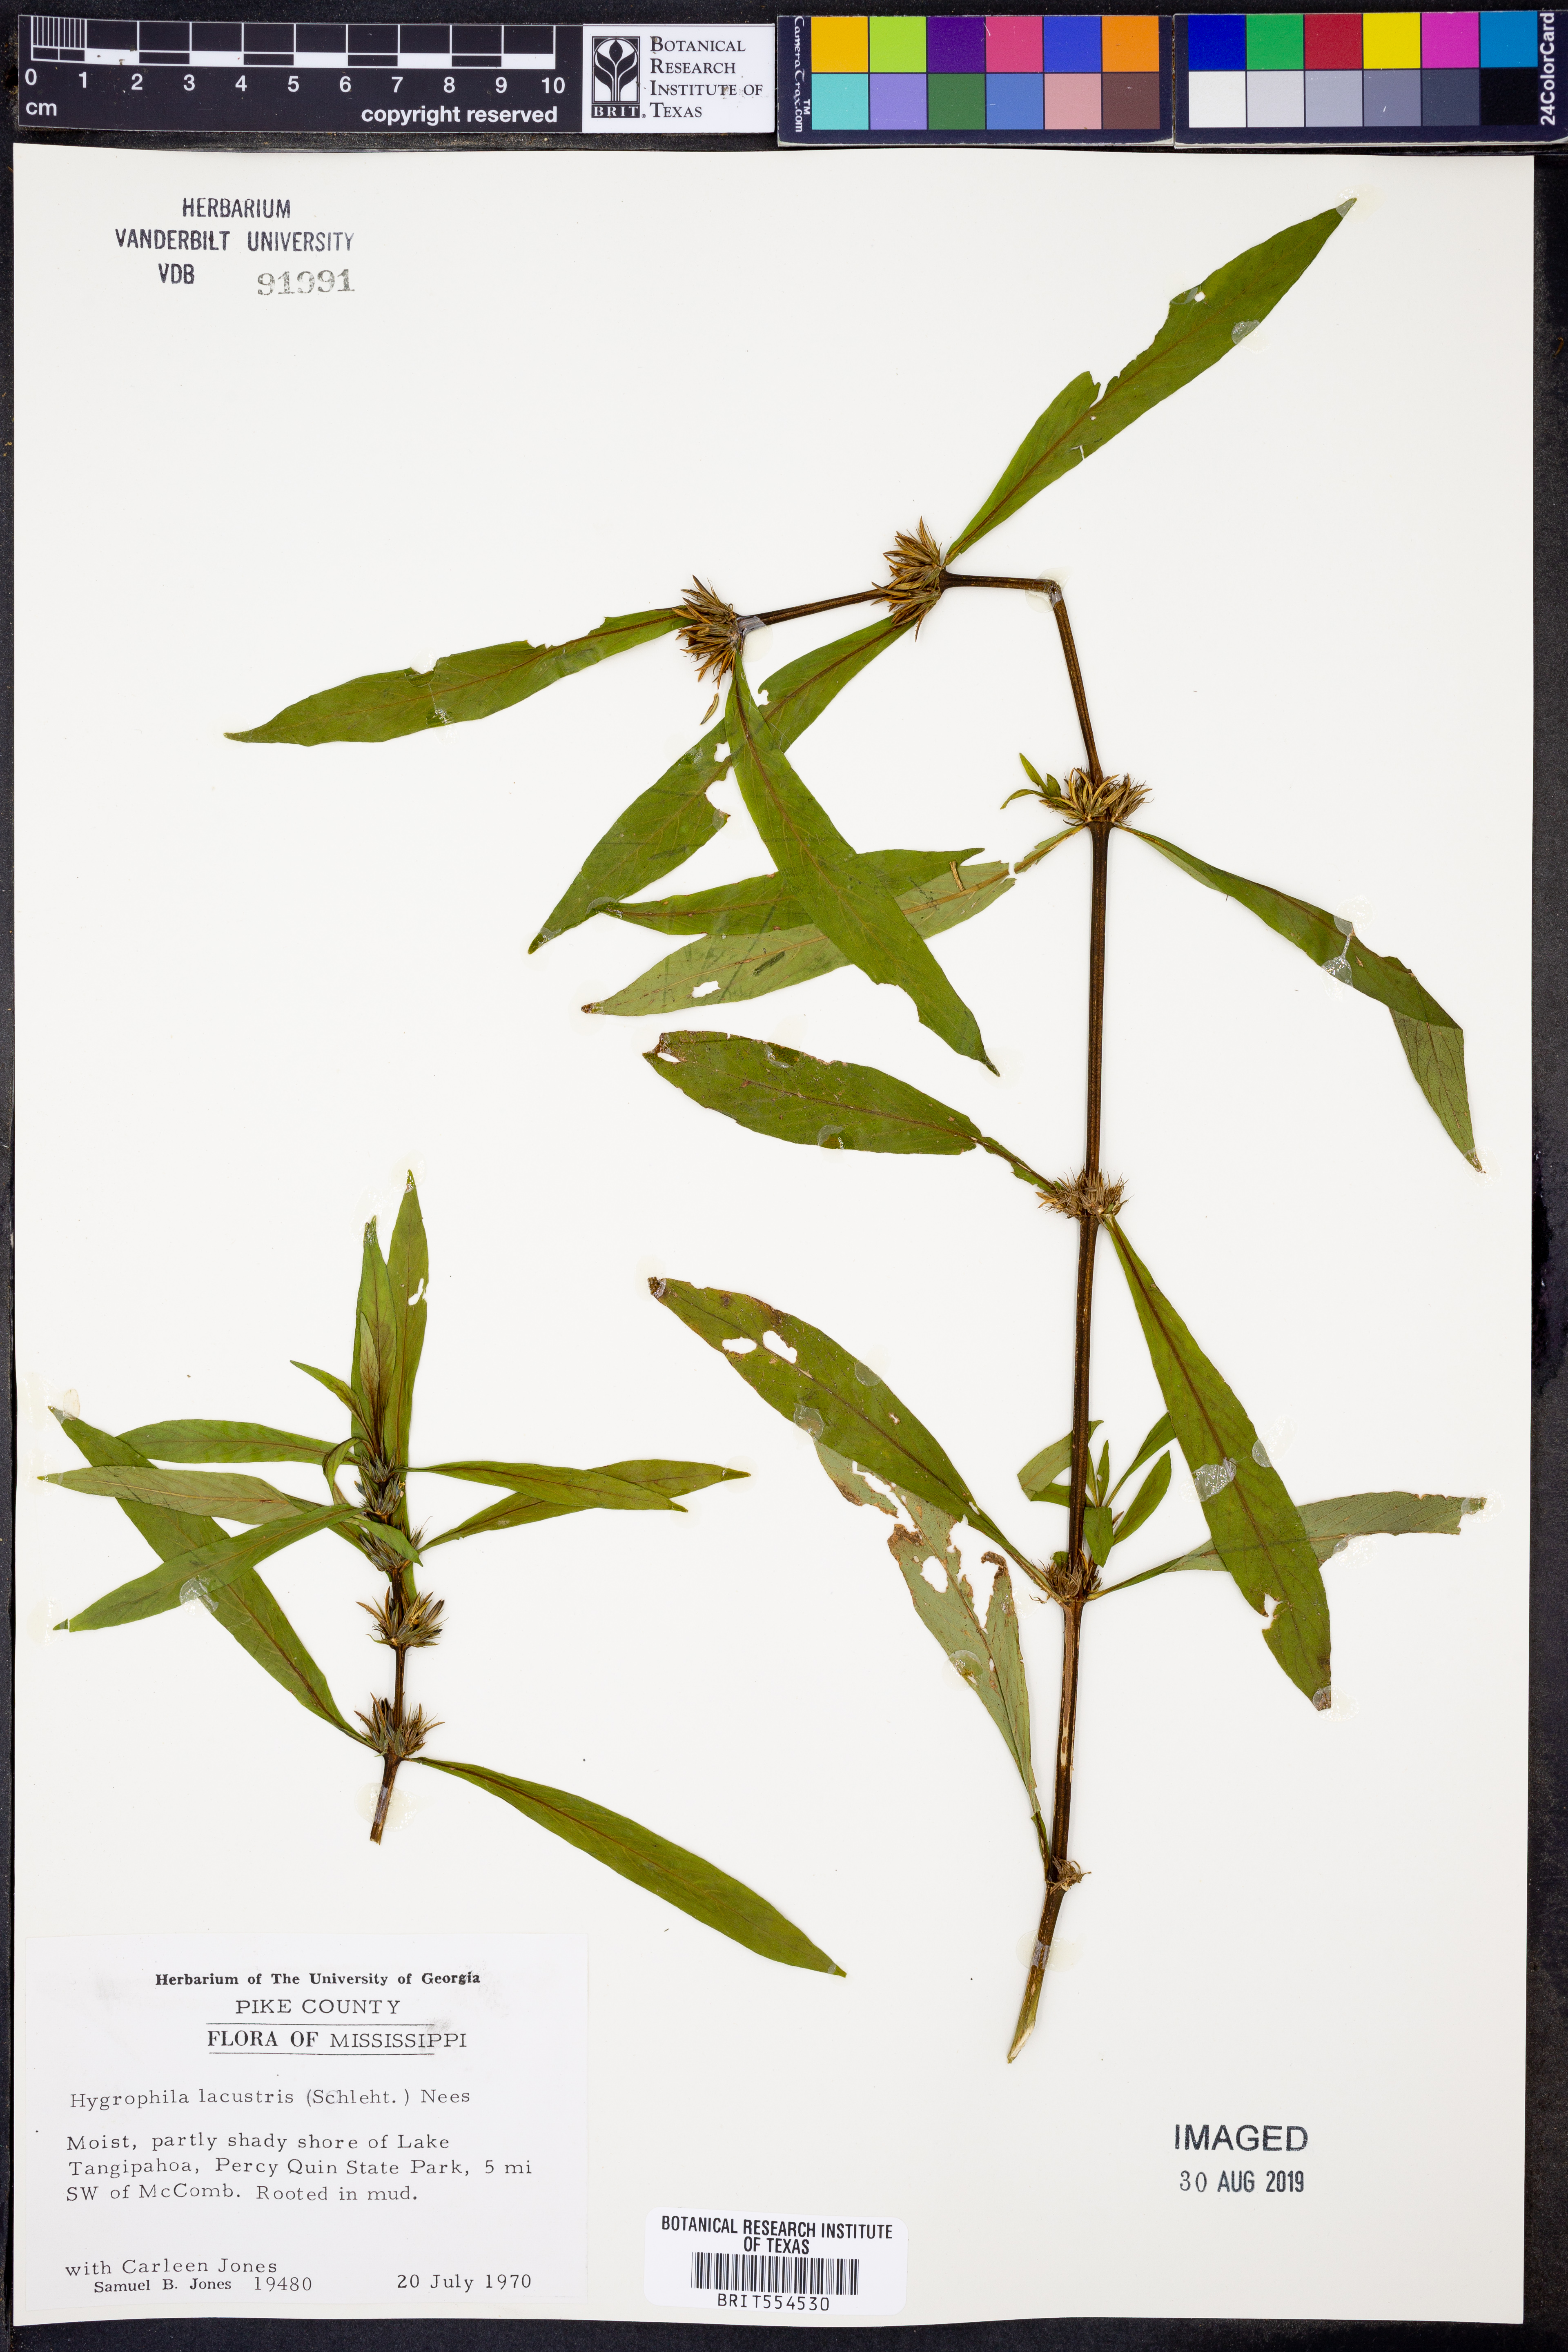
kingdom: Plantae
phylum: Tracheophyta
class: Magnoliopsida
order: Lamiales
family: Acanthaceae
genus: Hygrophila
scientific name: Hygrophila costata
